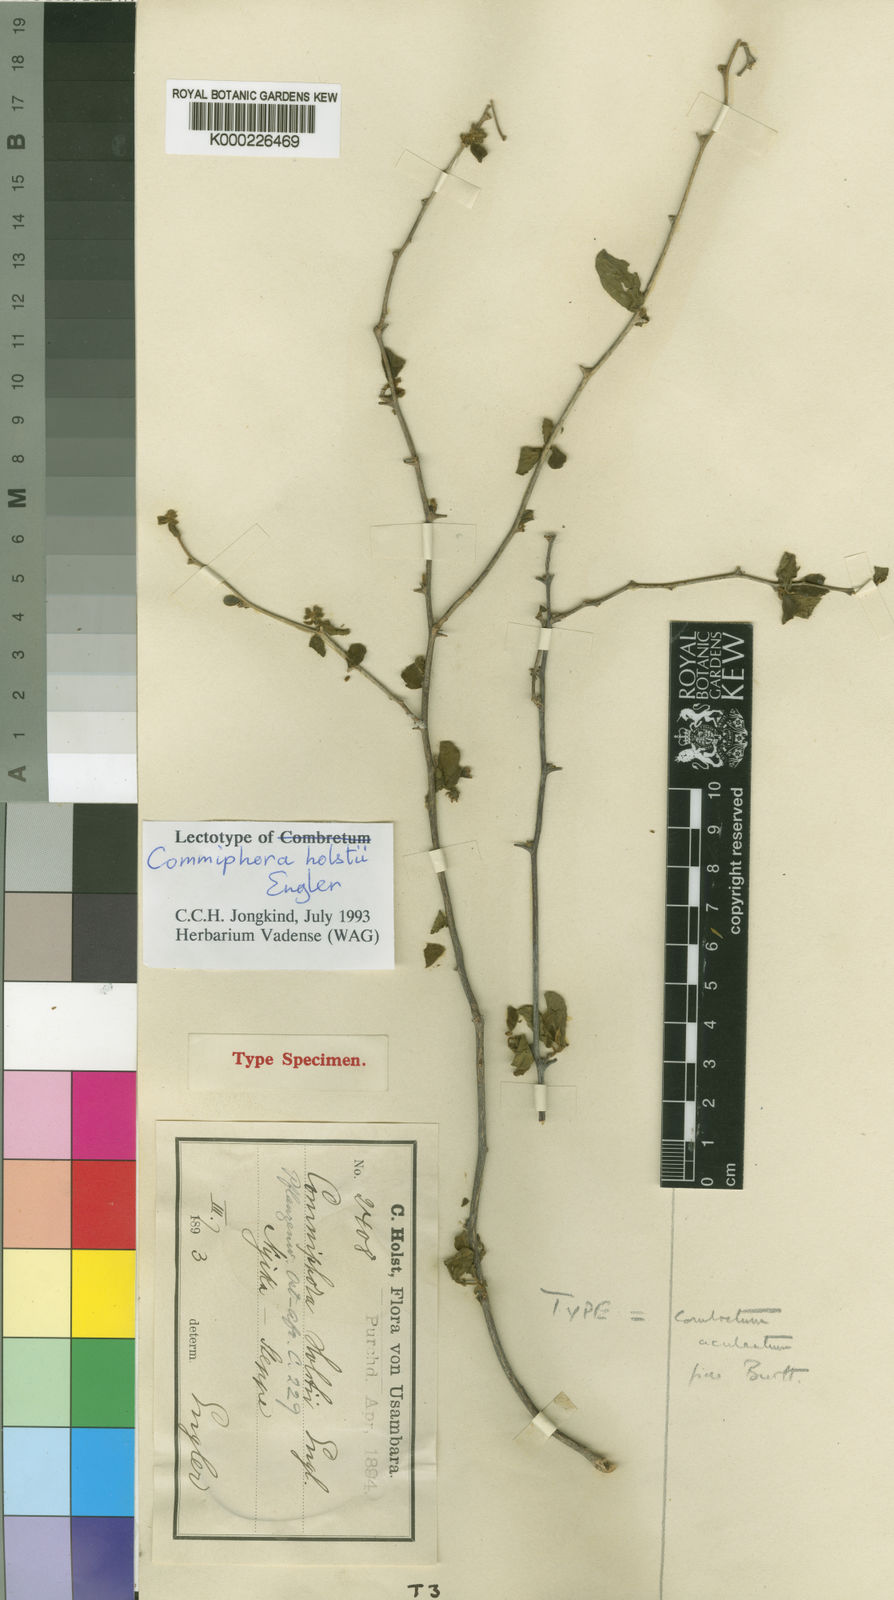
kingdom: Plantae
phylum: Tracheophyta
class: Magnoliopsida
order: Myrtales
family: Combretaceae
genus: Combretum
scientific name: Combretum
